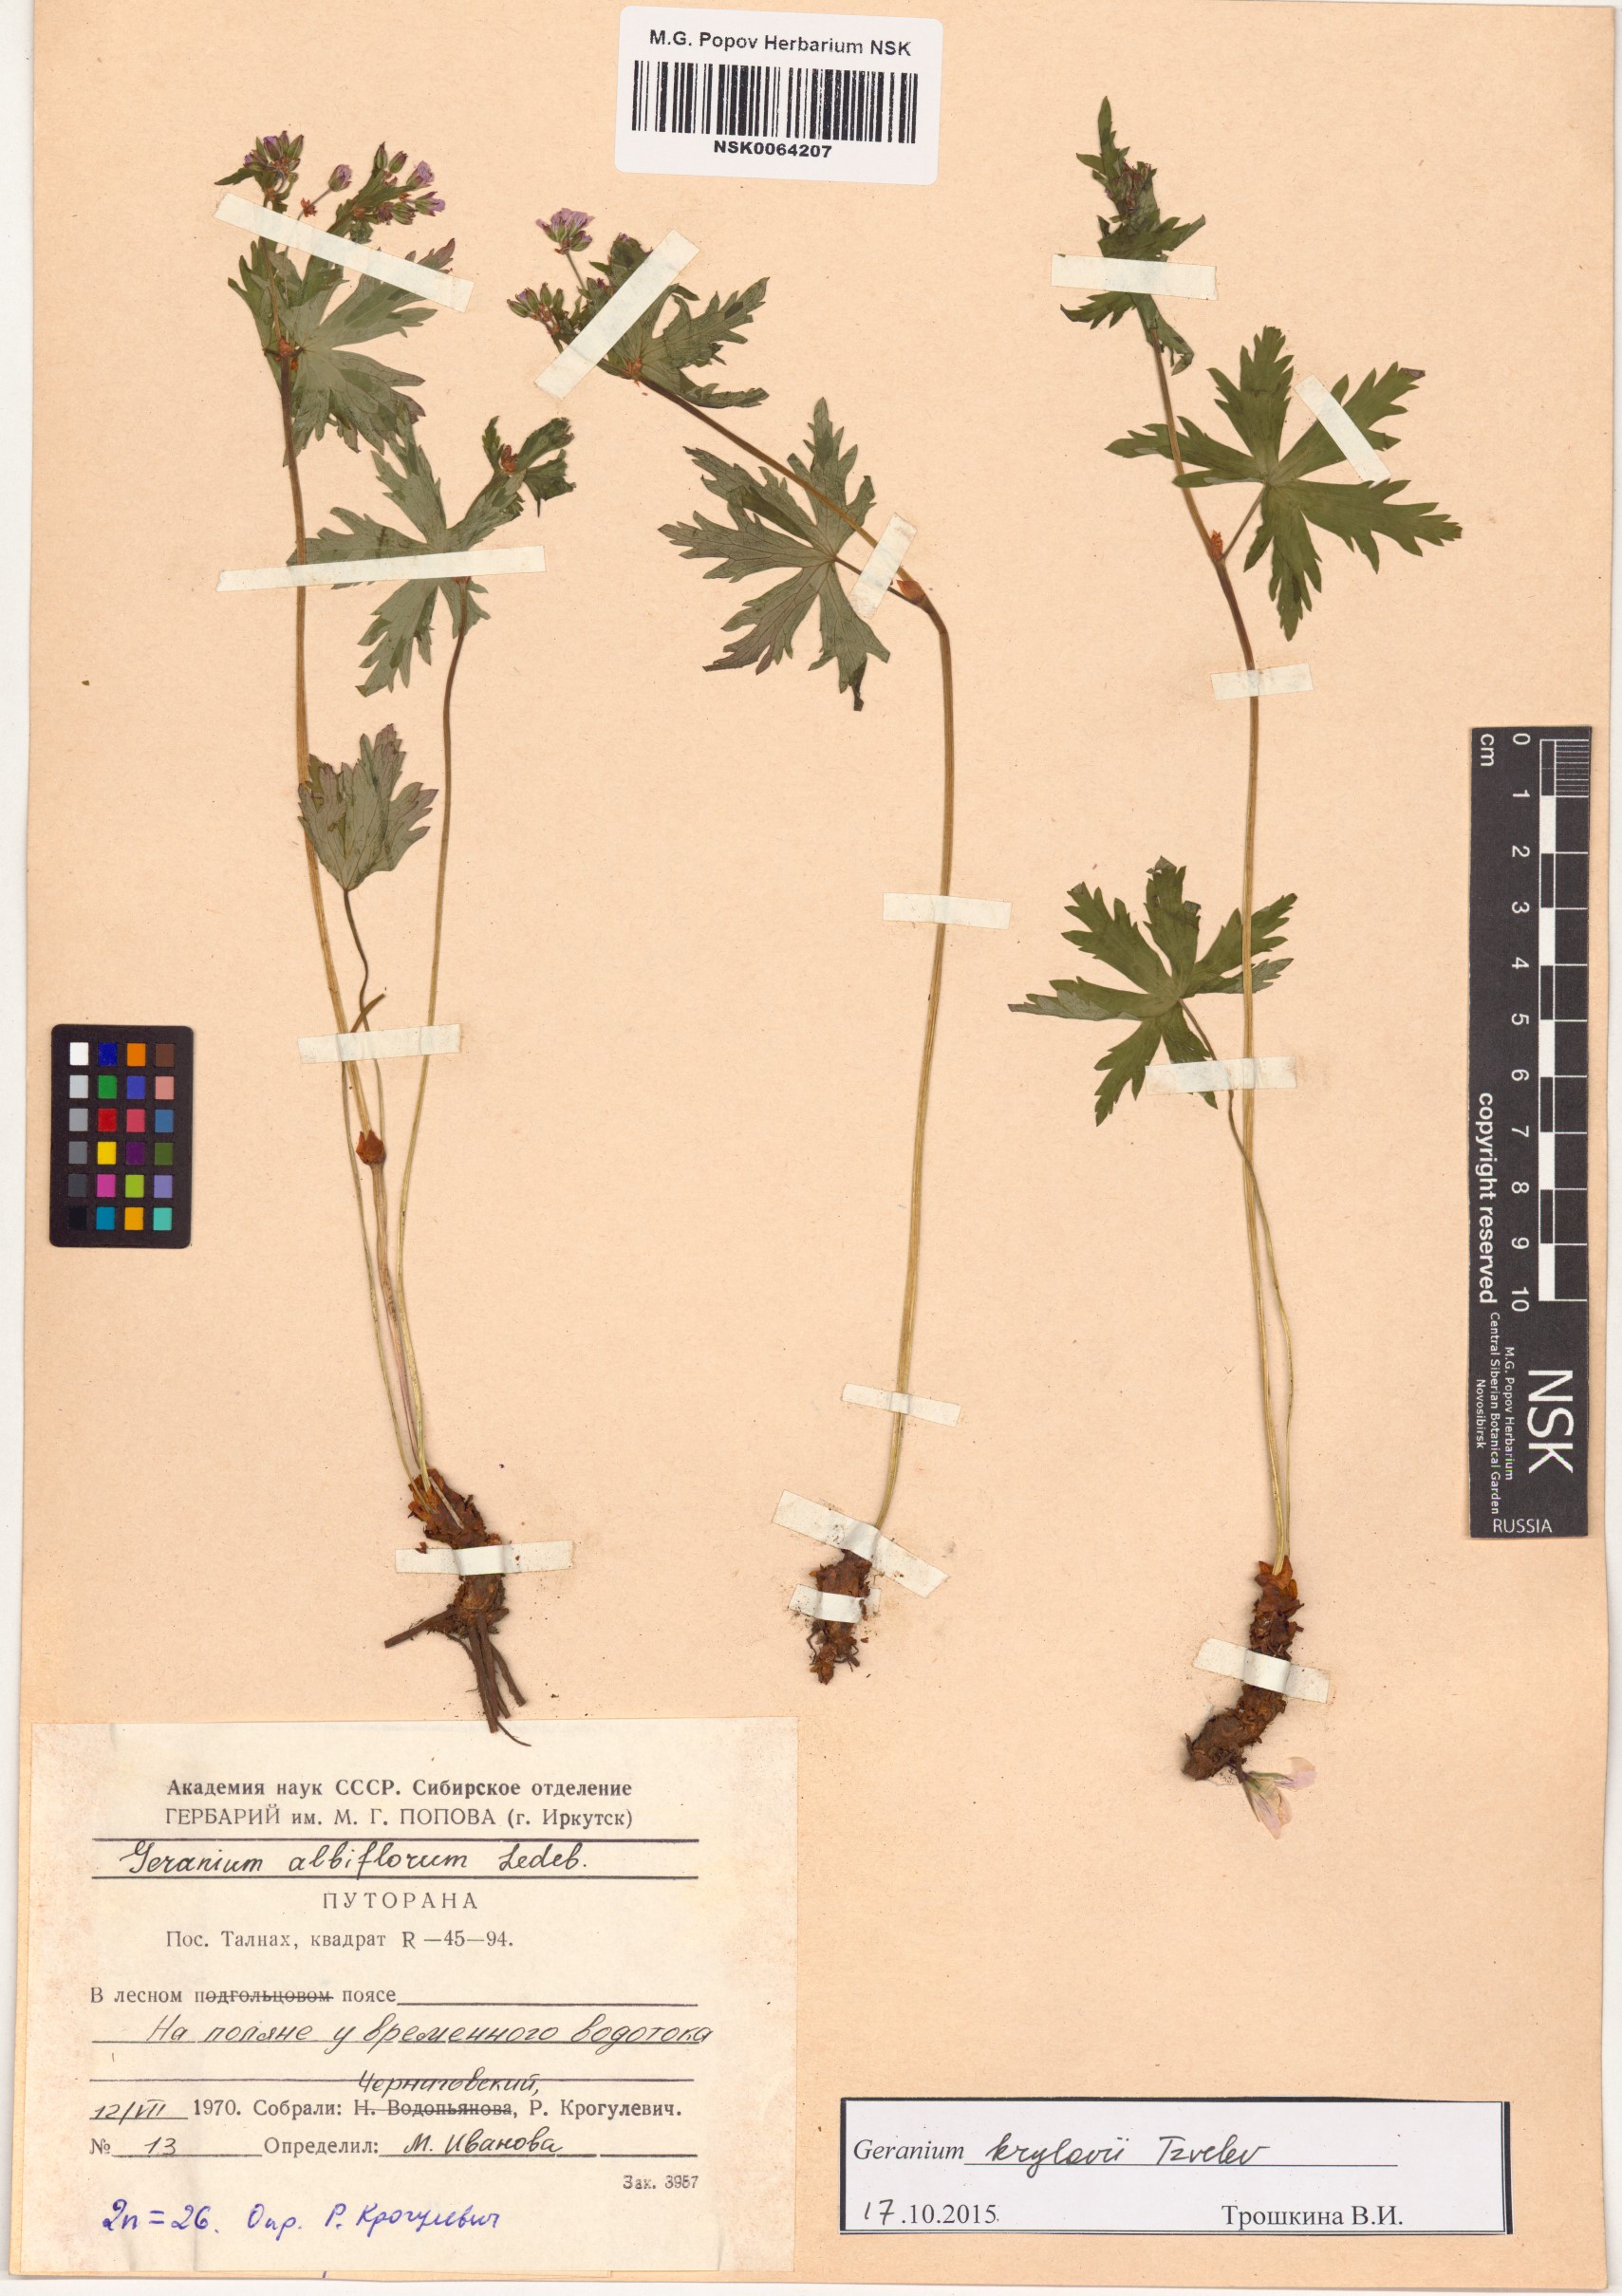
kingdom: Plantae
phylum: Tracheophyta
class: Magnoliopsida
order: Geraniales
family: Geraniaceae
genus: Geranium
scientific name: Geranium sylvaticum
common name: Wood crane's-bill
